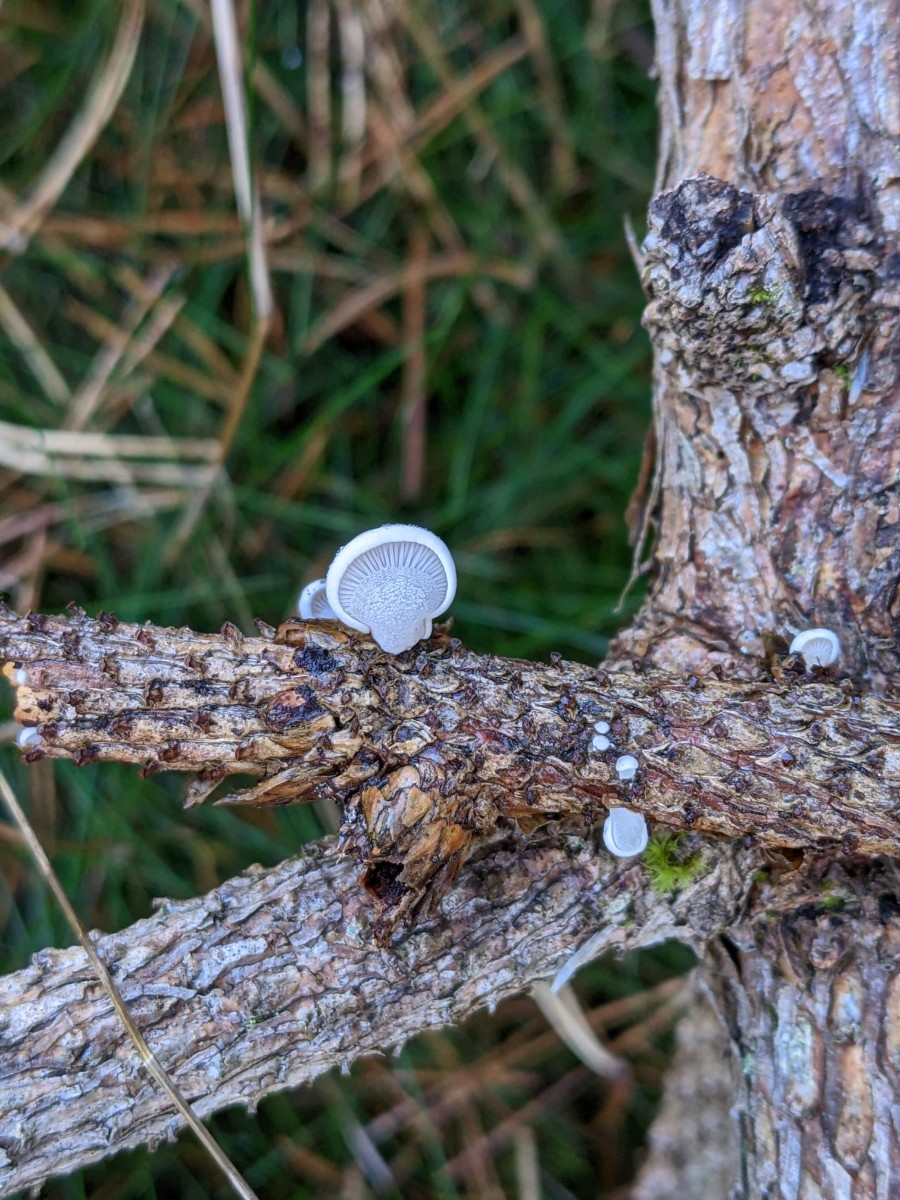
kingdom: Fungi
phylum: Basidiomycota
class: Agaricomycetes
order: Agaricales
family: Mycenaceae
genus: Panellus
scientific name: Panellus mitis
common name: mild epaulethat
